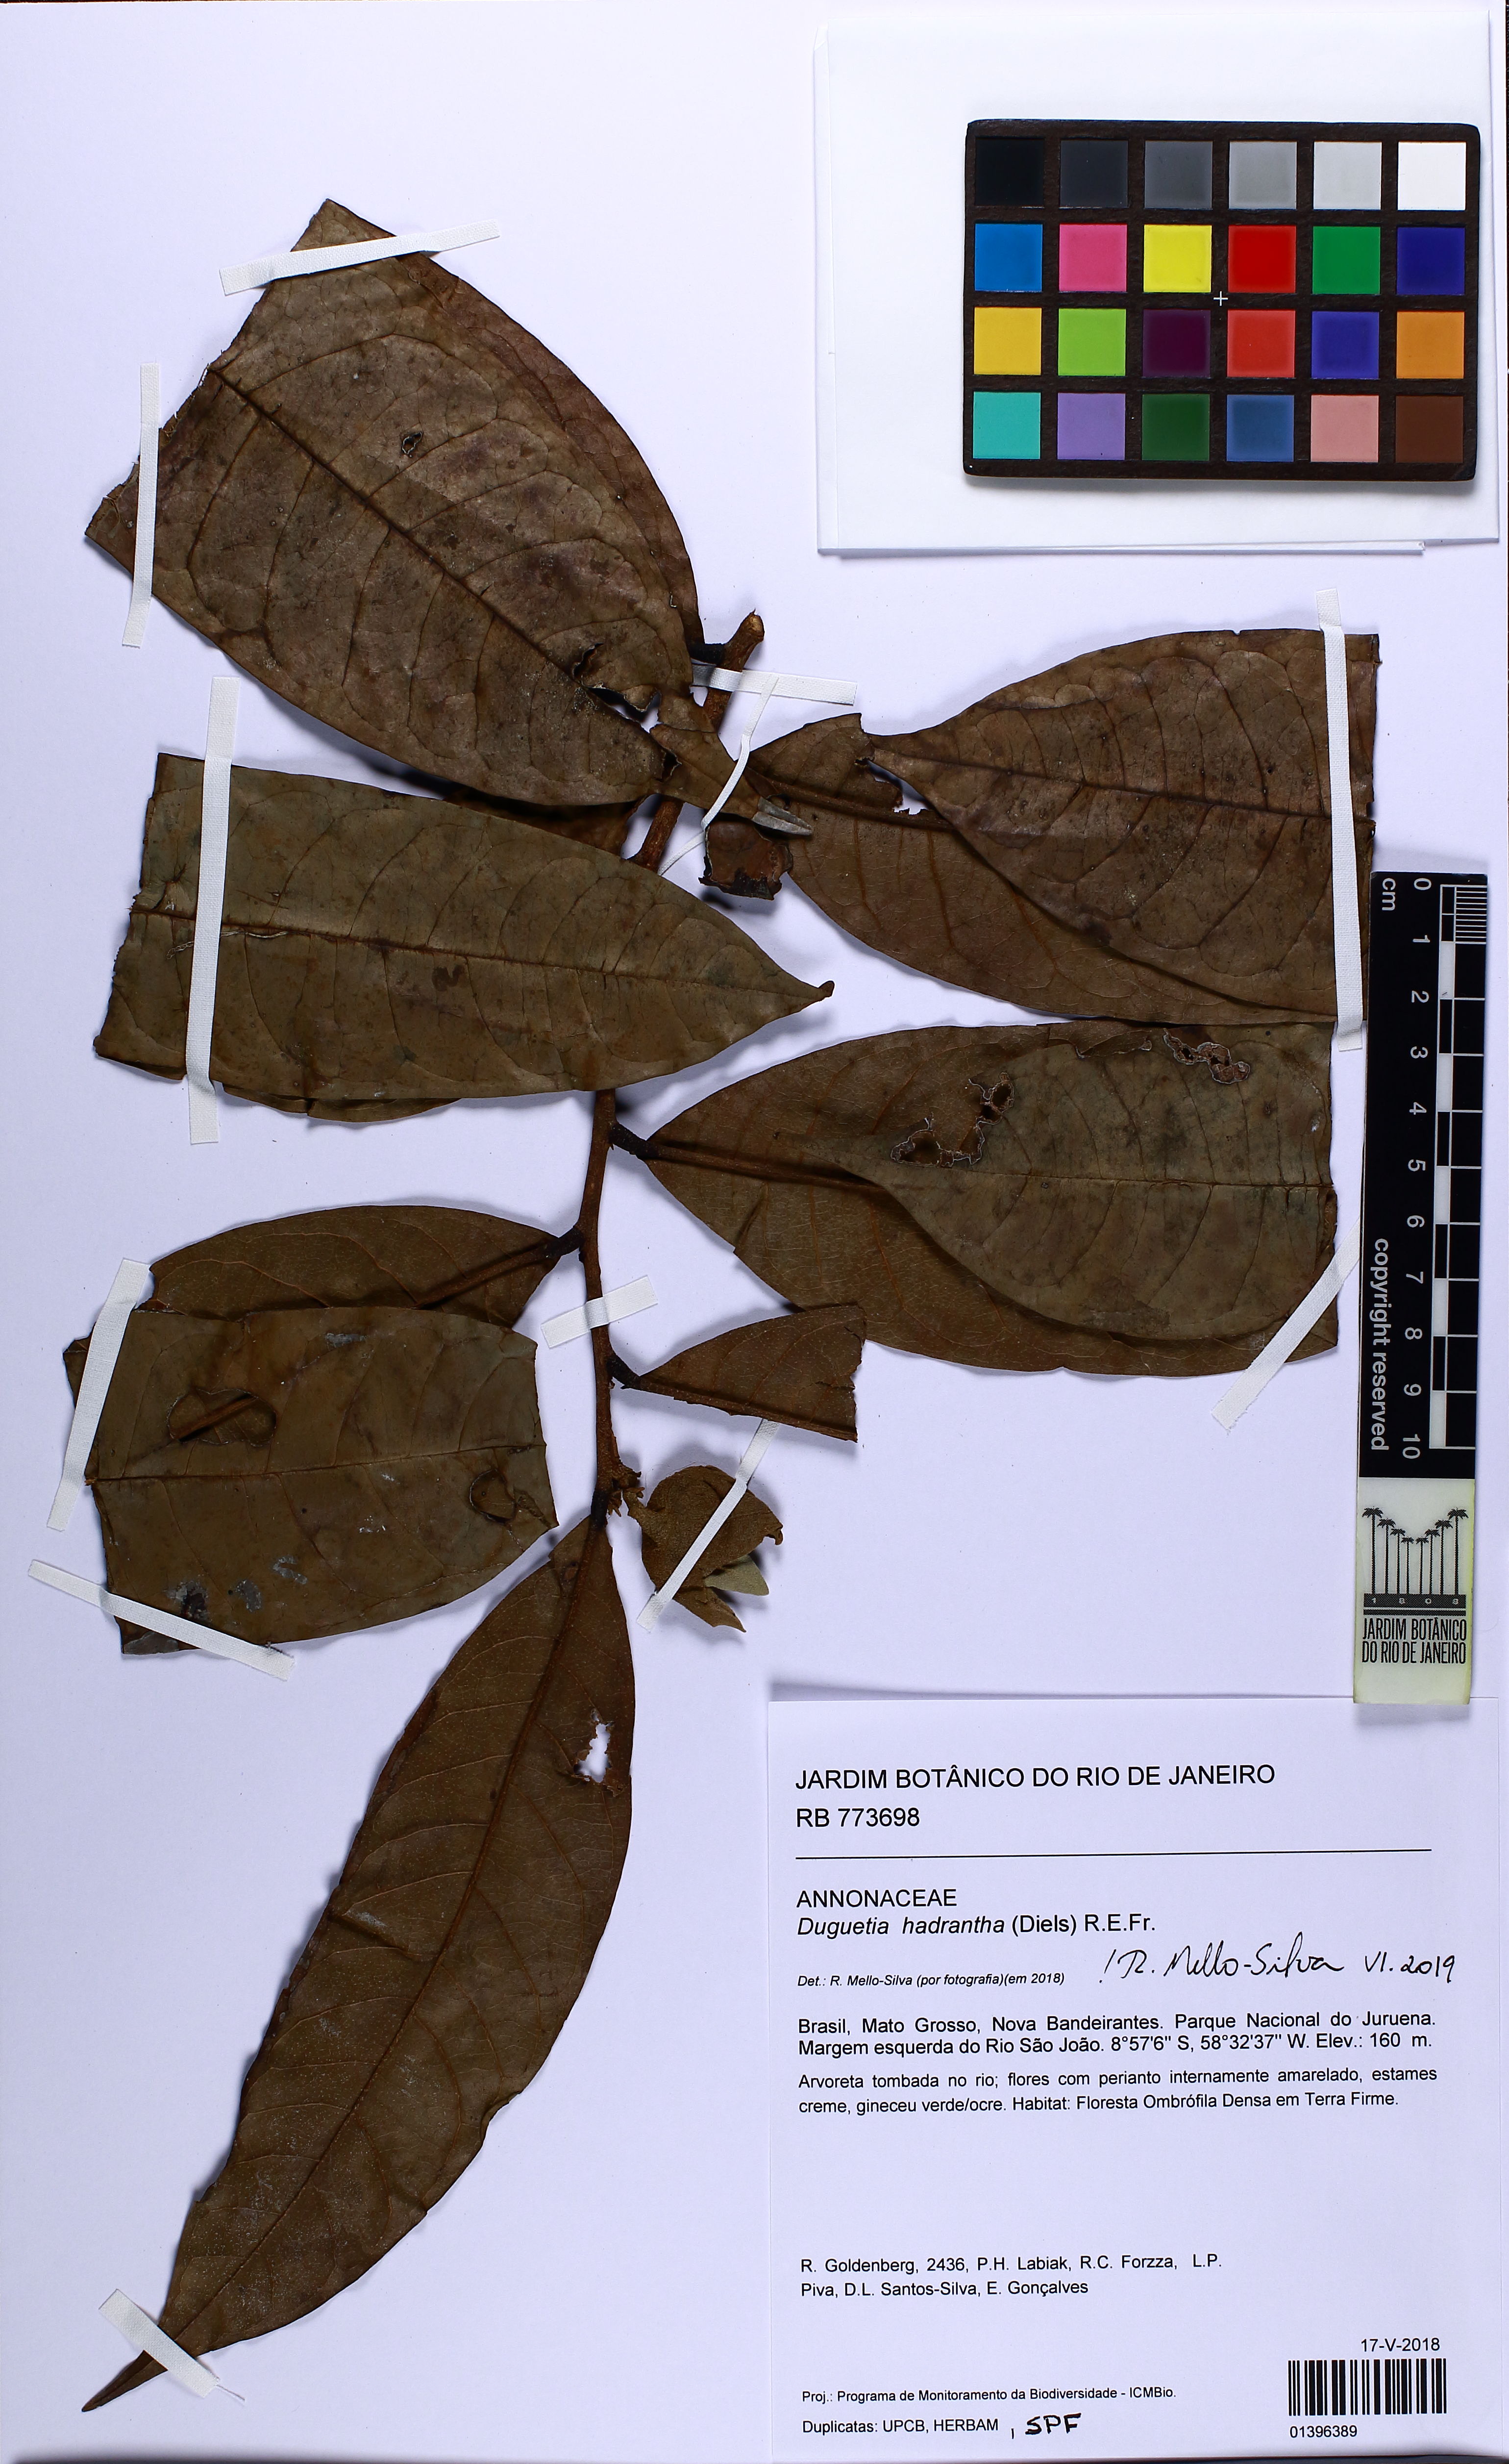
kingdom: Plantae
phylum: Tracheophyta
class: Magnoliopsida
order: Magnoliales
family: Annonaceae
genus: Duguetia
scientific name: Duguetia hadrantha
